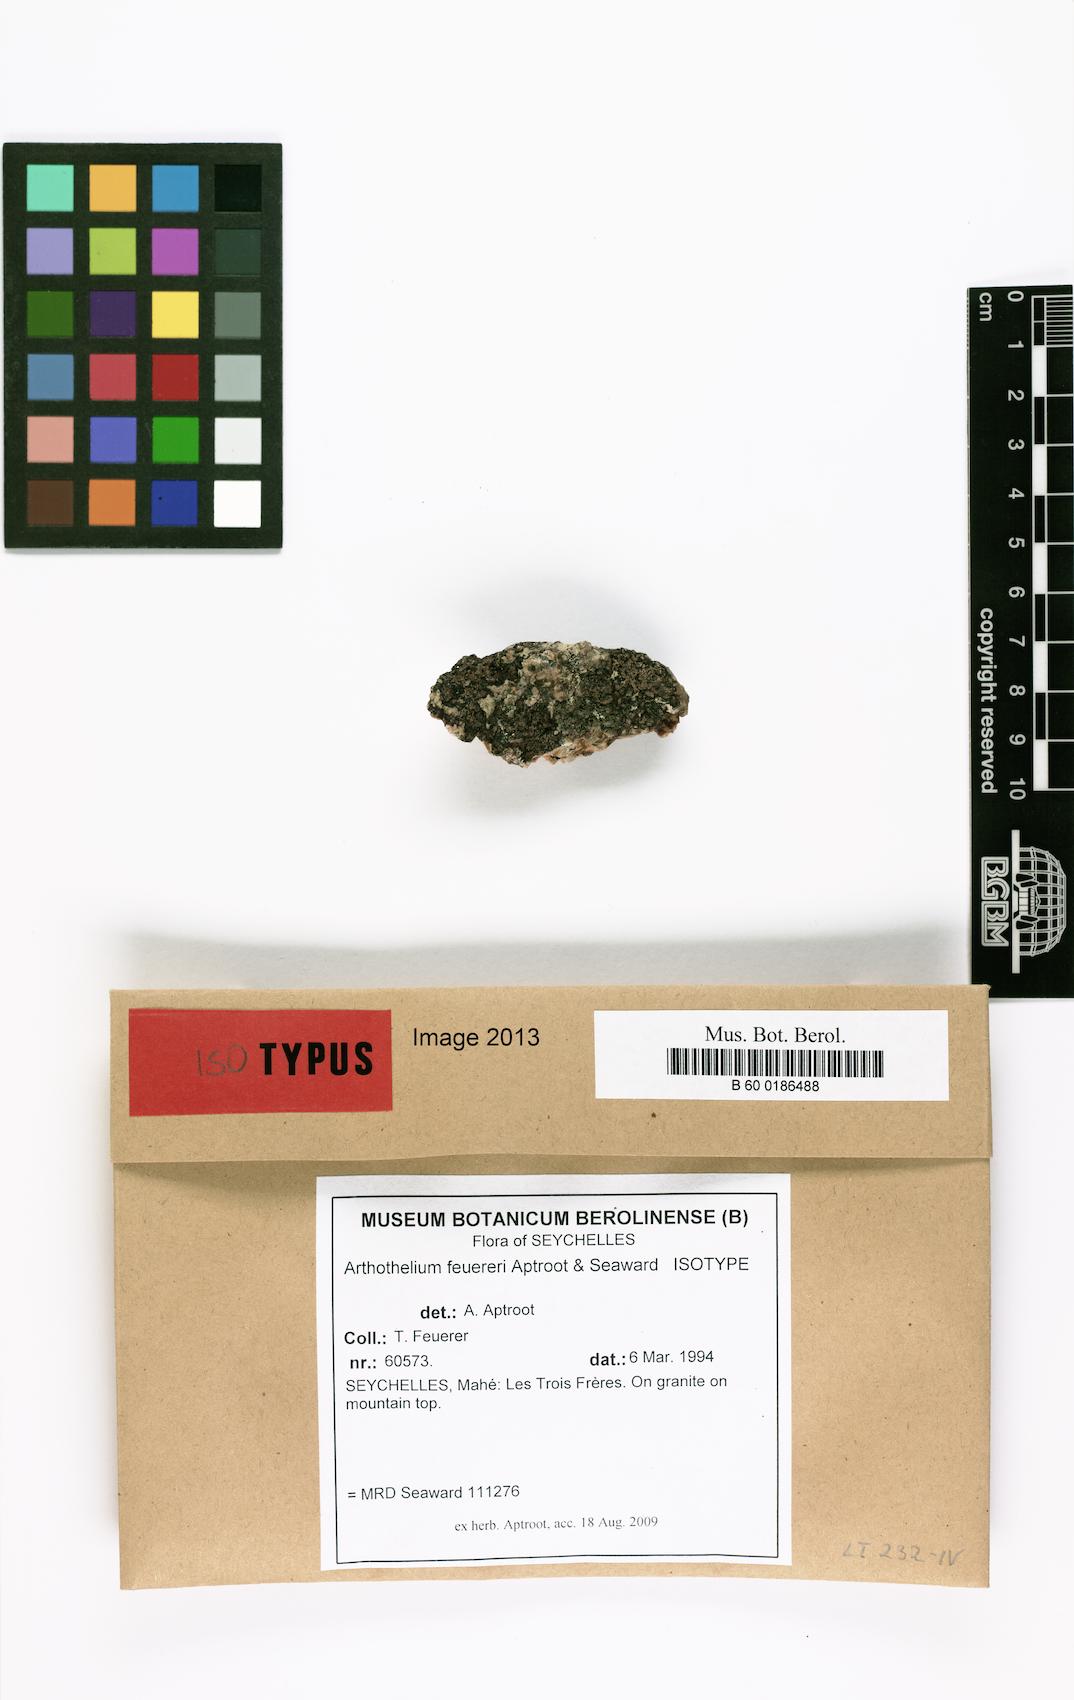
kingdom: Fungi
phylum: Ascomycota
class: Arthoniomycetes
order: Arthoniales
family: Arthoniaceae
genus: Arthothelium
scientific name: Arthothelium feuereri
